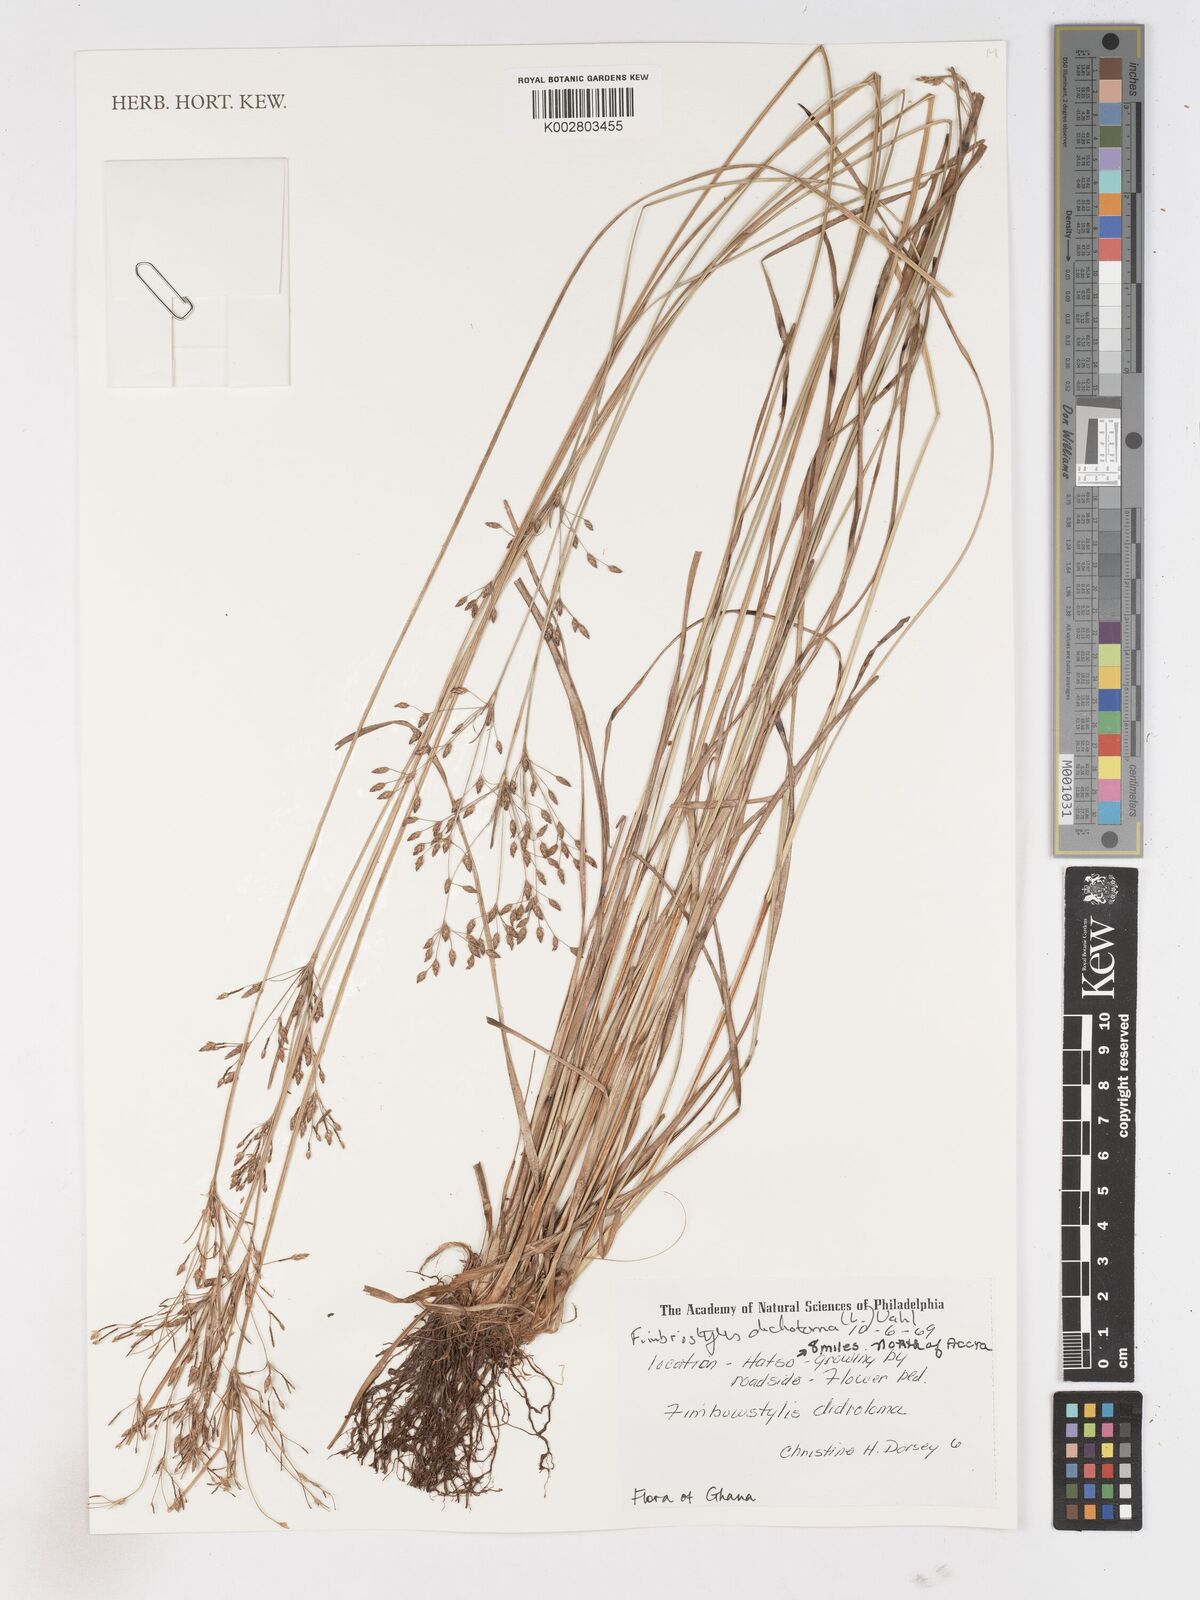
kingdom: Plantae
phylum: Tracheophyta
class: Liliopsida
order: Poales
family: Cyperaceae
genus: Fimbristylis
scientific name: Fimbristylis dichotoma
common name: Forked fimbry
